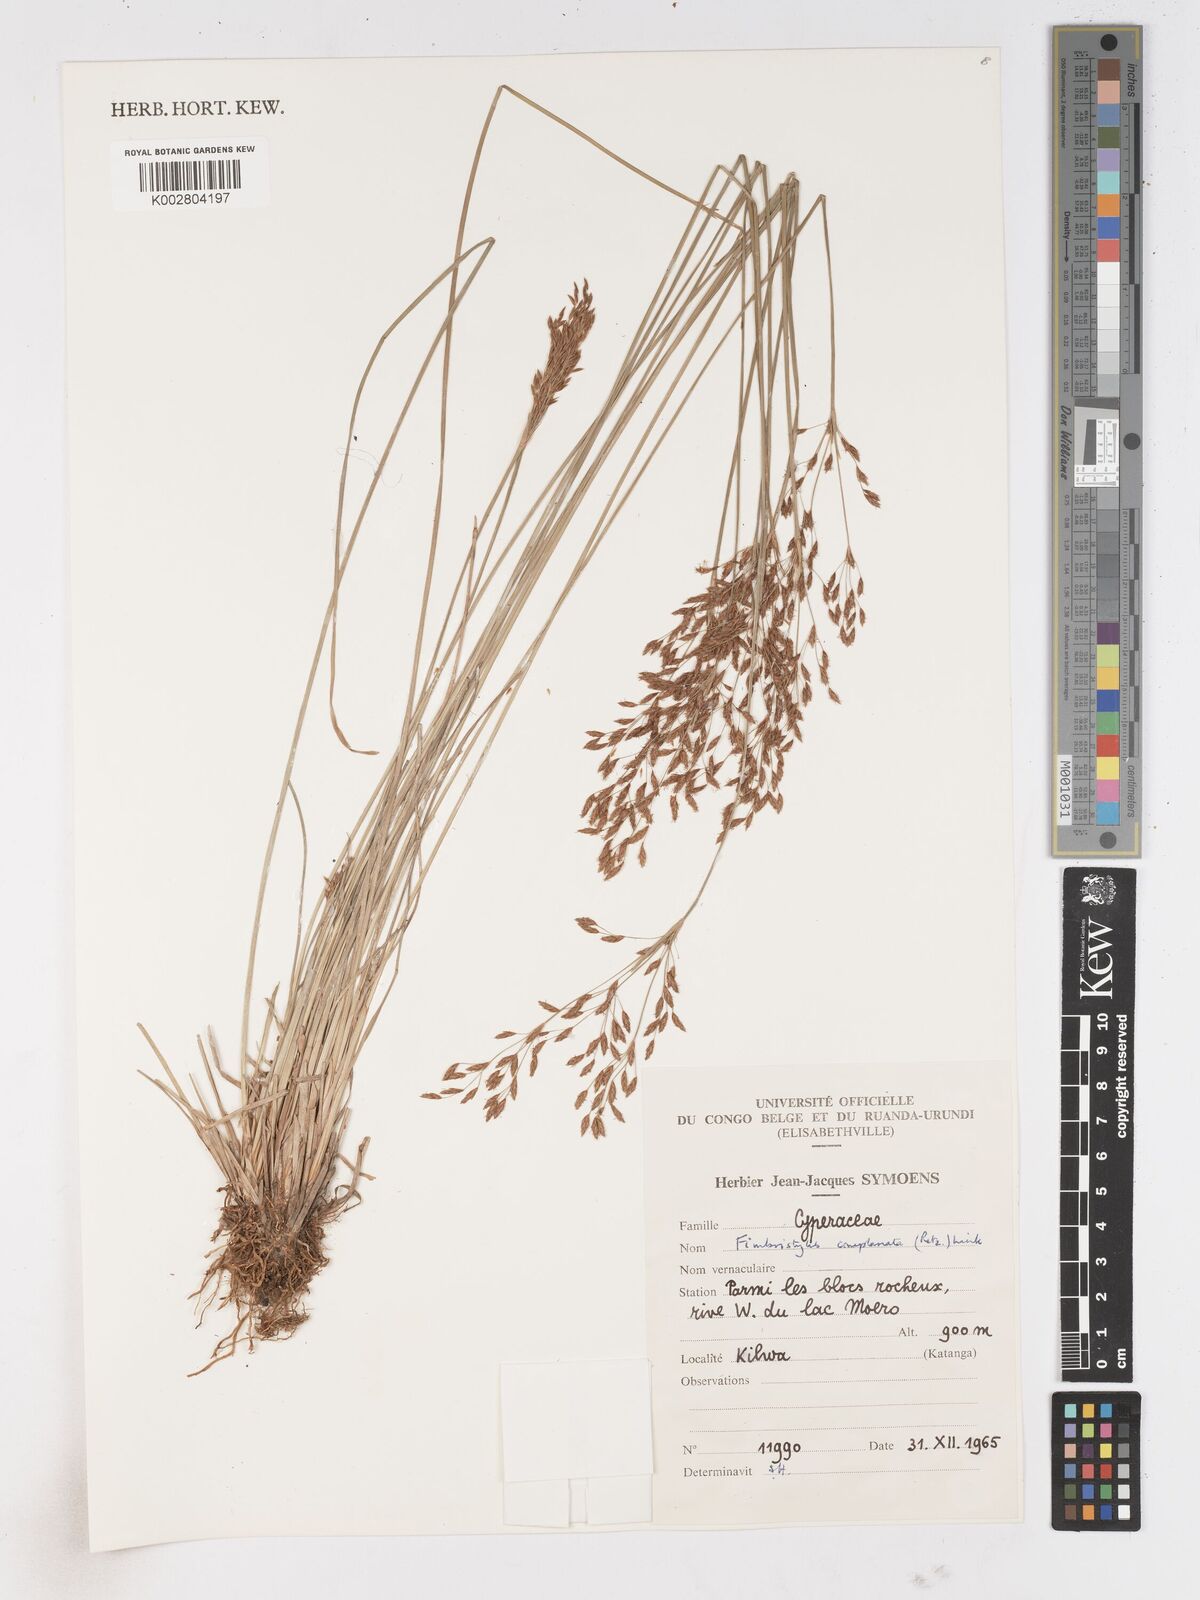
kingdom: Plantae
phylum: Tracheophyta
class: Liliopsida
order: Poales
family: Cyperaceae
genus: Fimbristylis
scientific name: Fimbristylis pilosa
